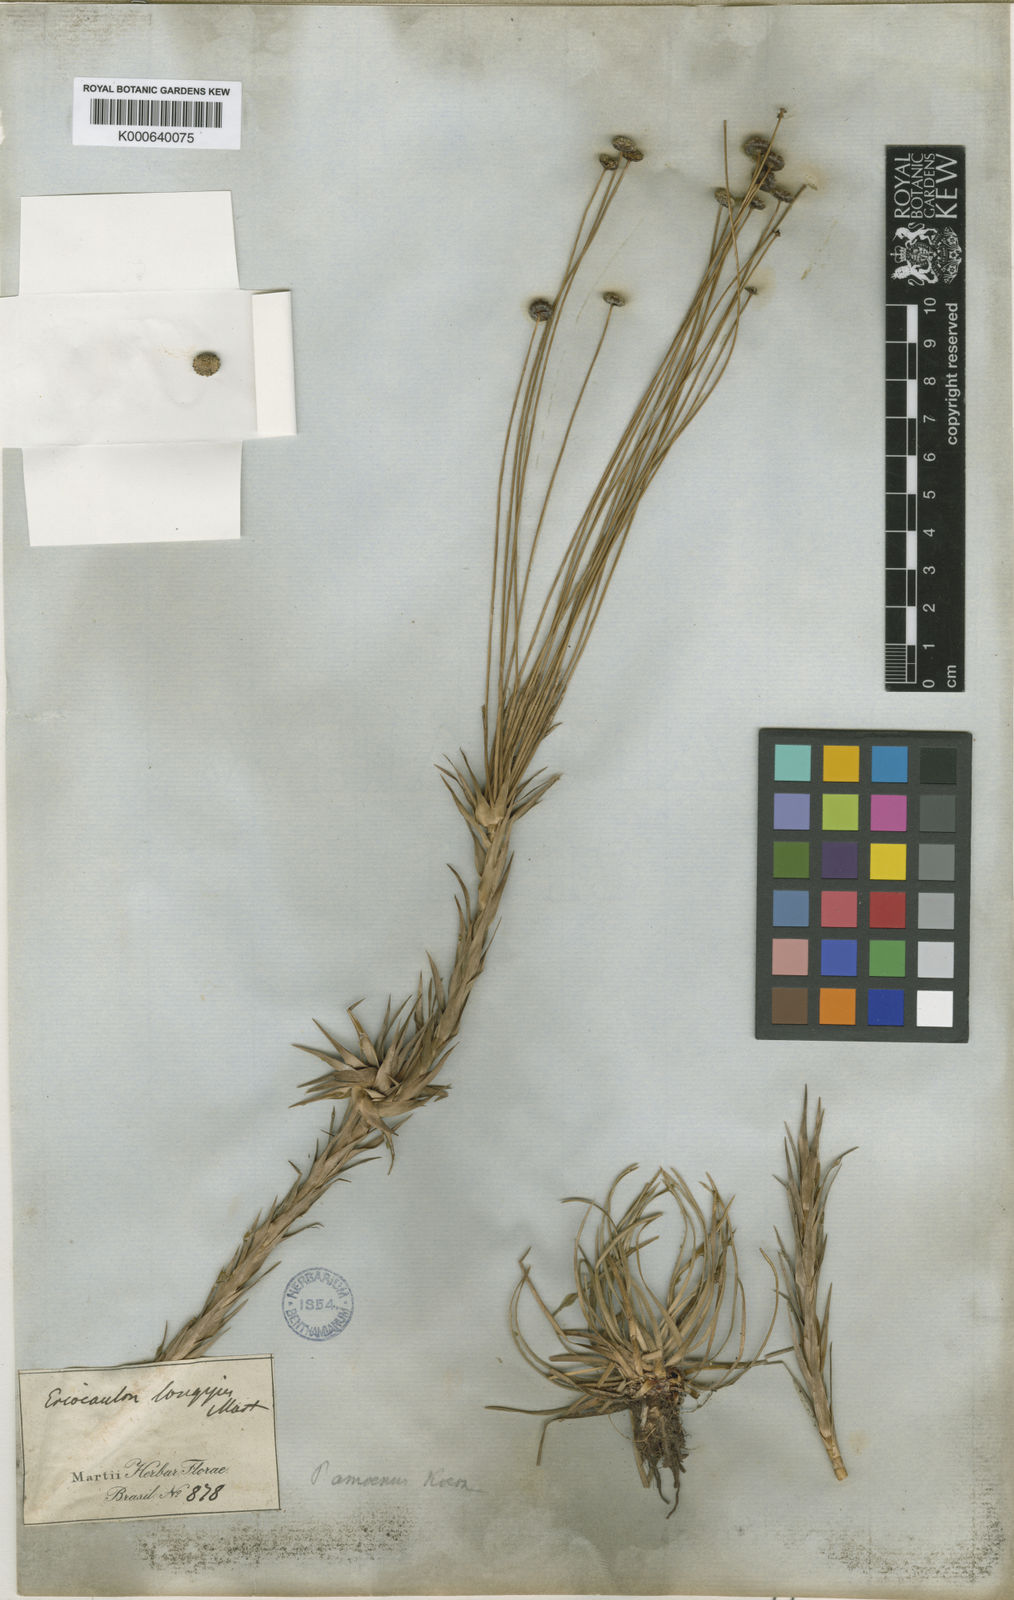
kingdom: Plantae
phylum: Tracheophyta
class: Liliopsida
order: Poales
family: Eriocaulaceae
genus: Paepalanthus
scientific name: Paepalanthus
